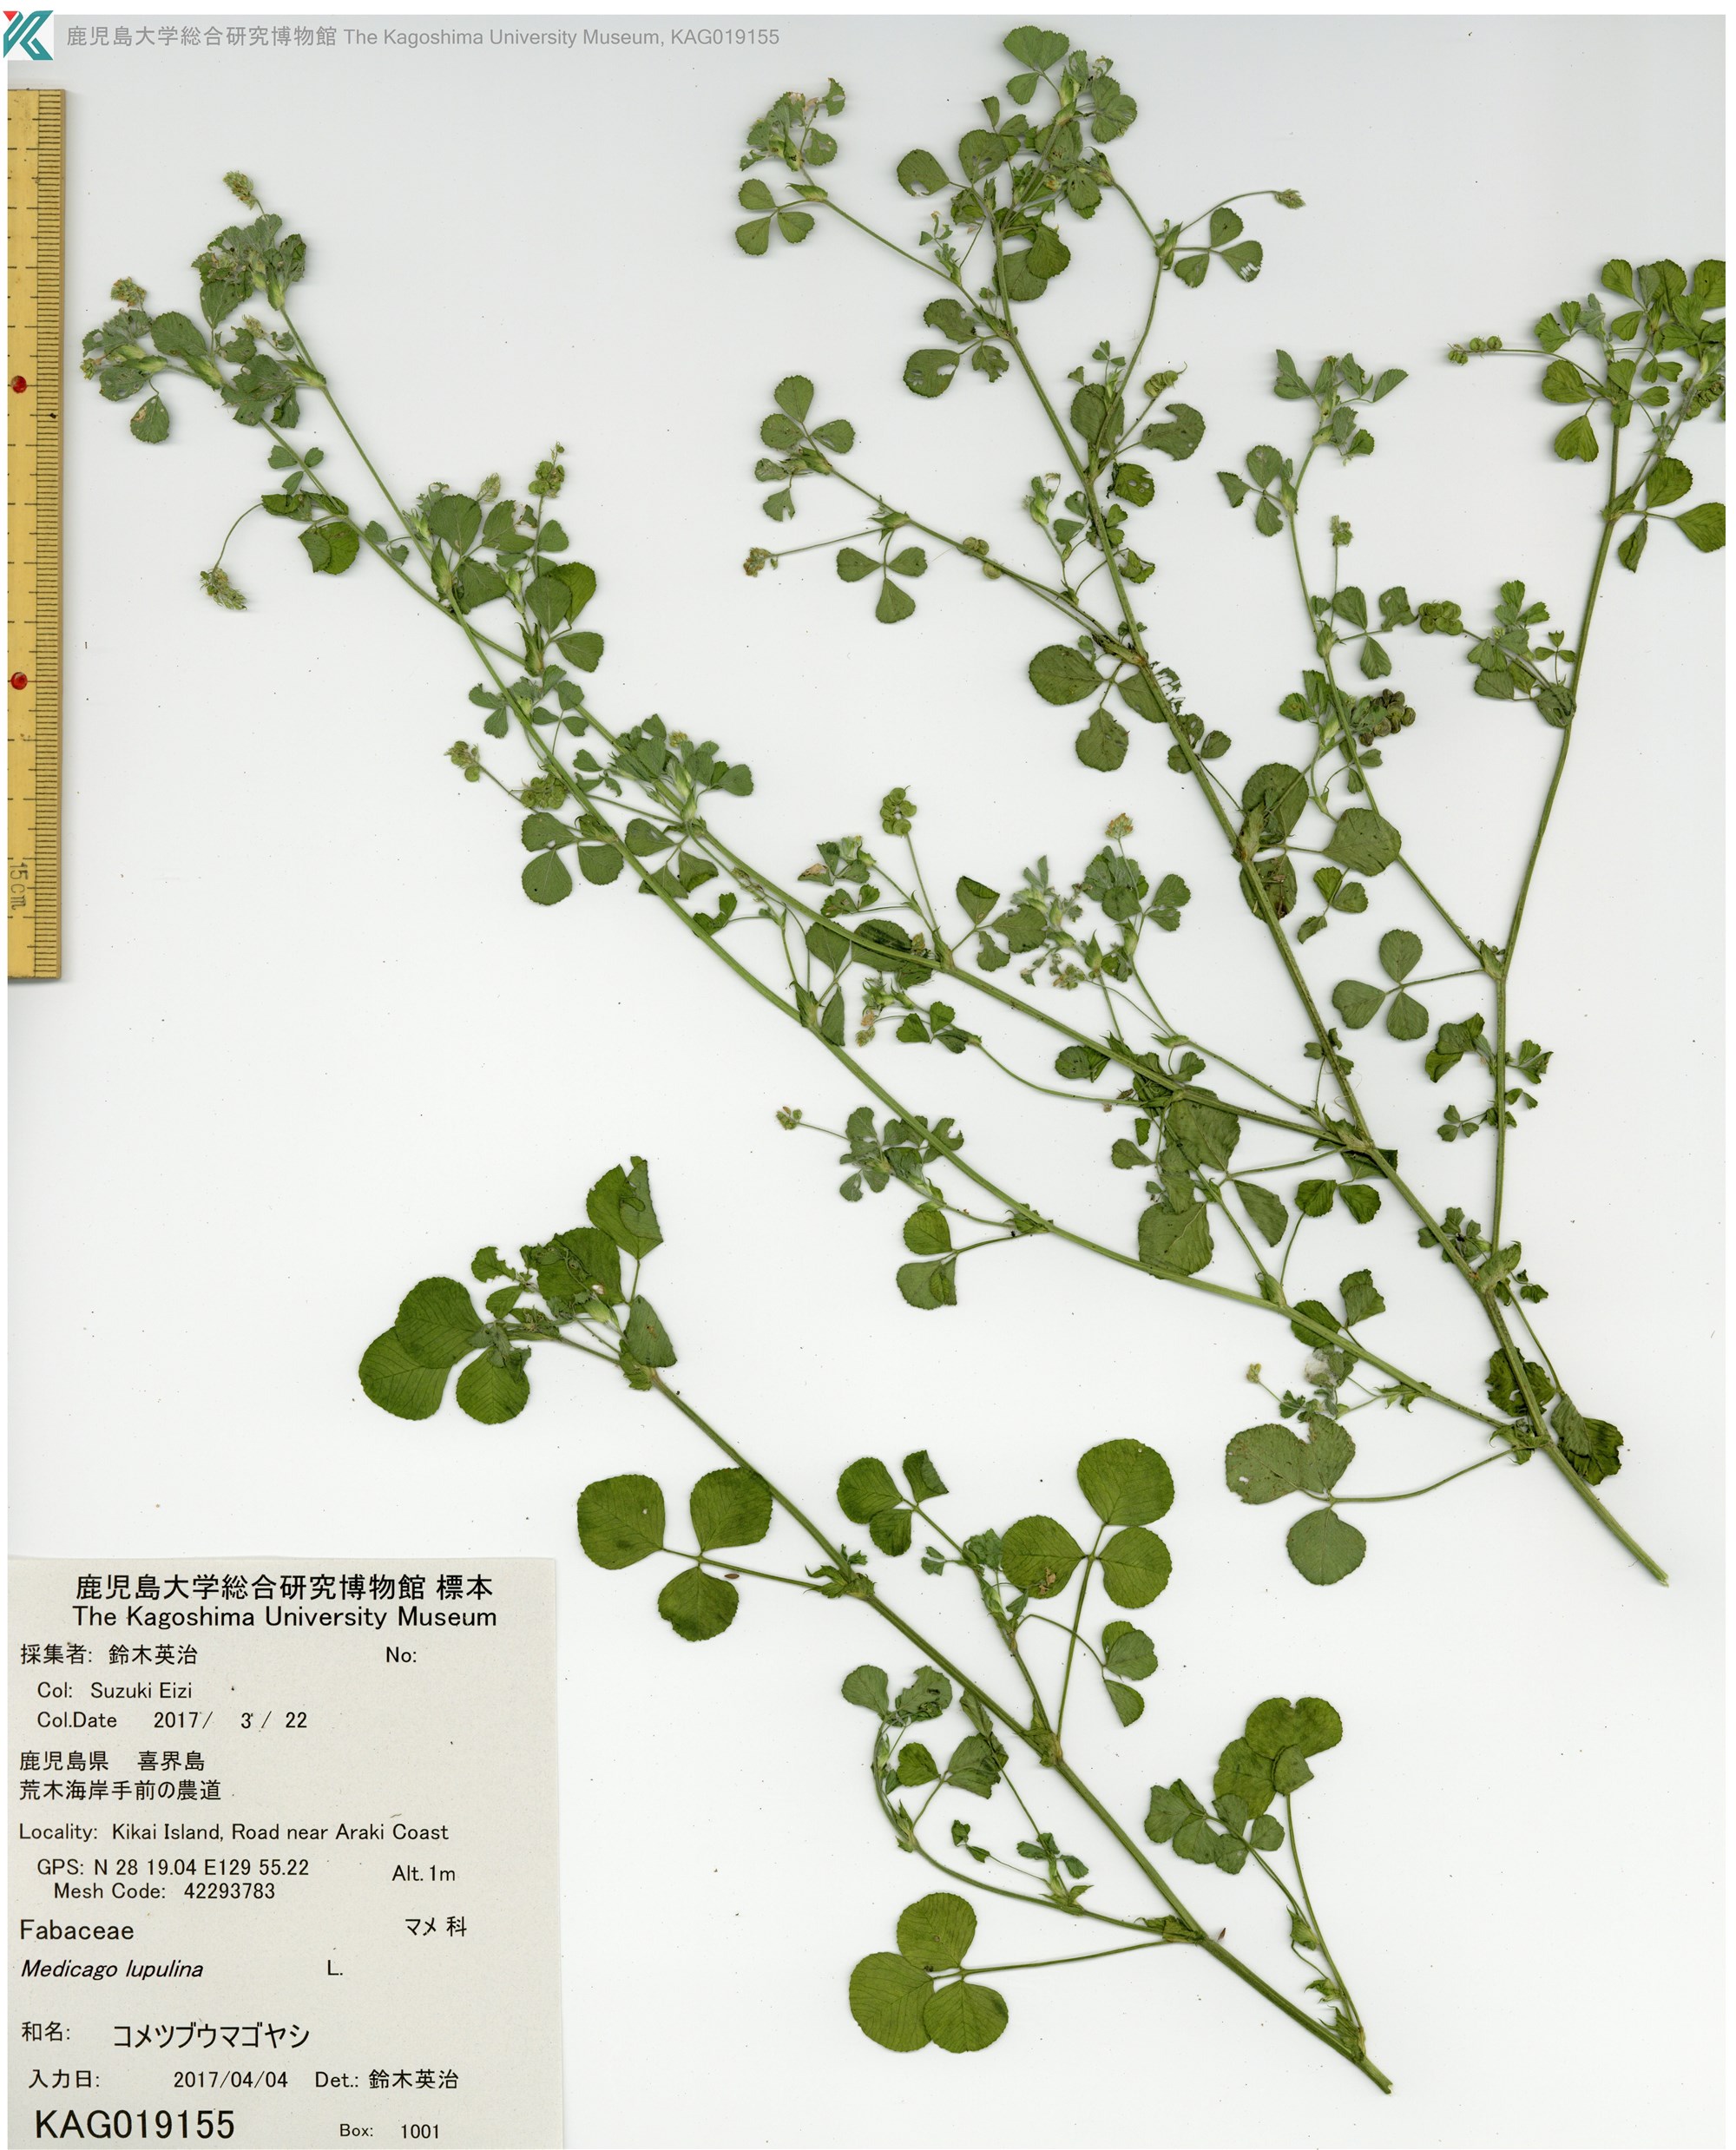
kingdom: Plantae
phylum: Tracheophyta
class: Magnoliopsida
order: Fabales
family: Fabaceae
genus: Medicago
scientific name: Medicago lupulina
